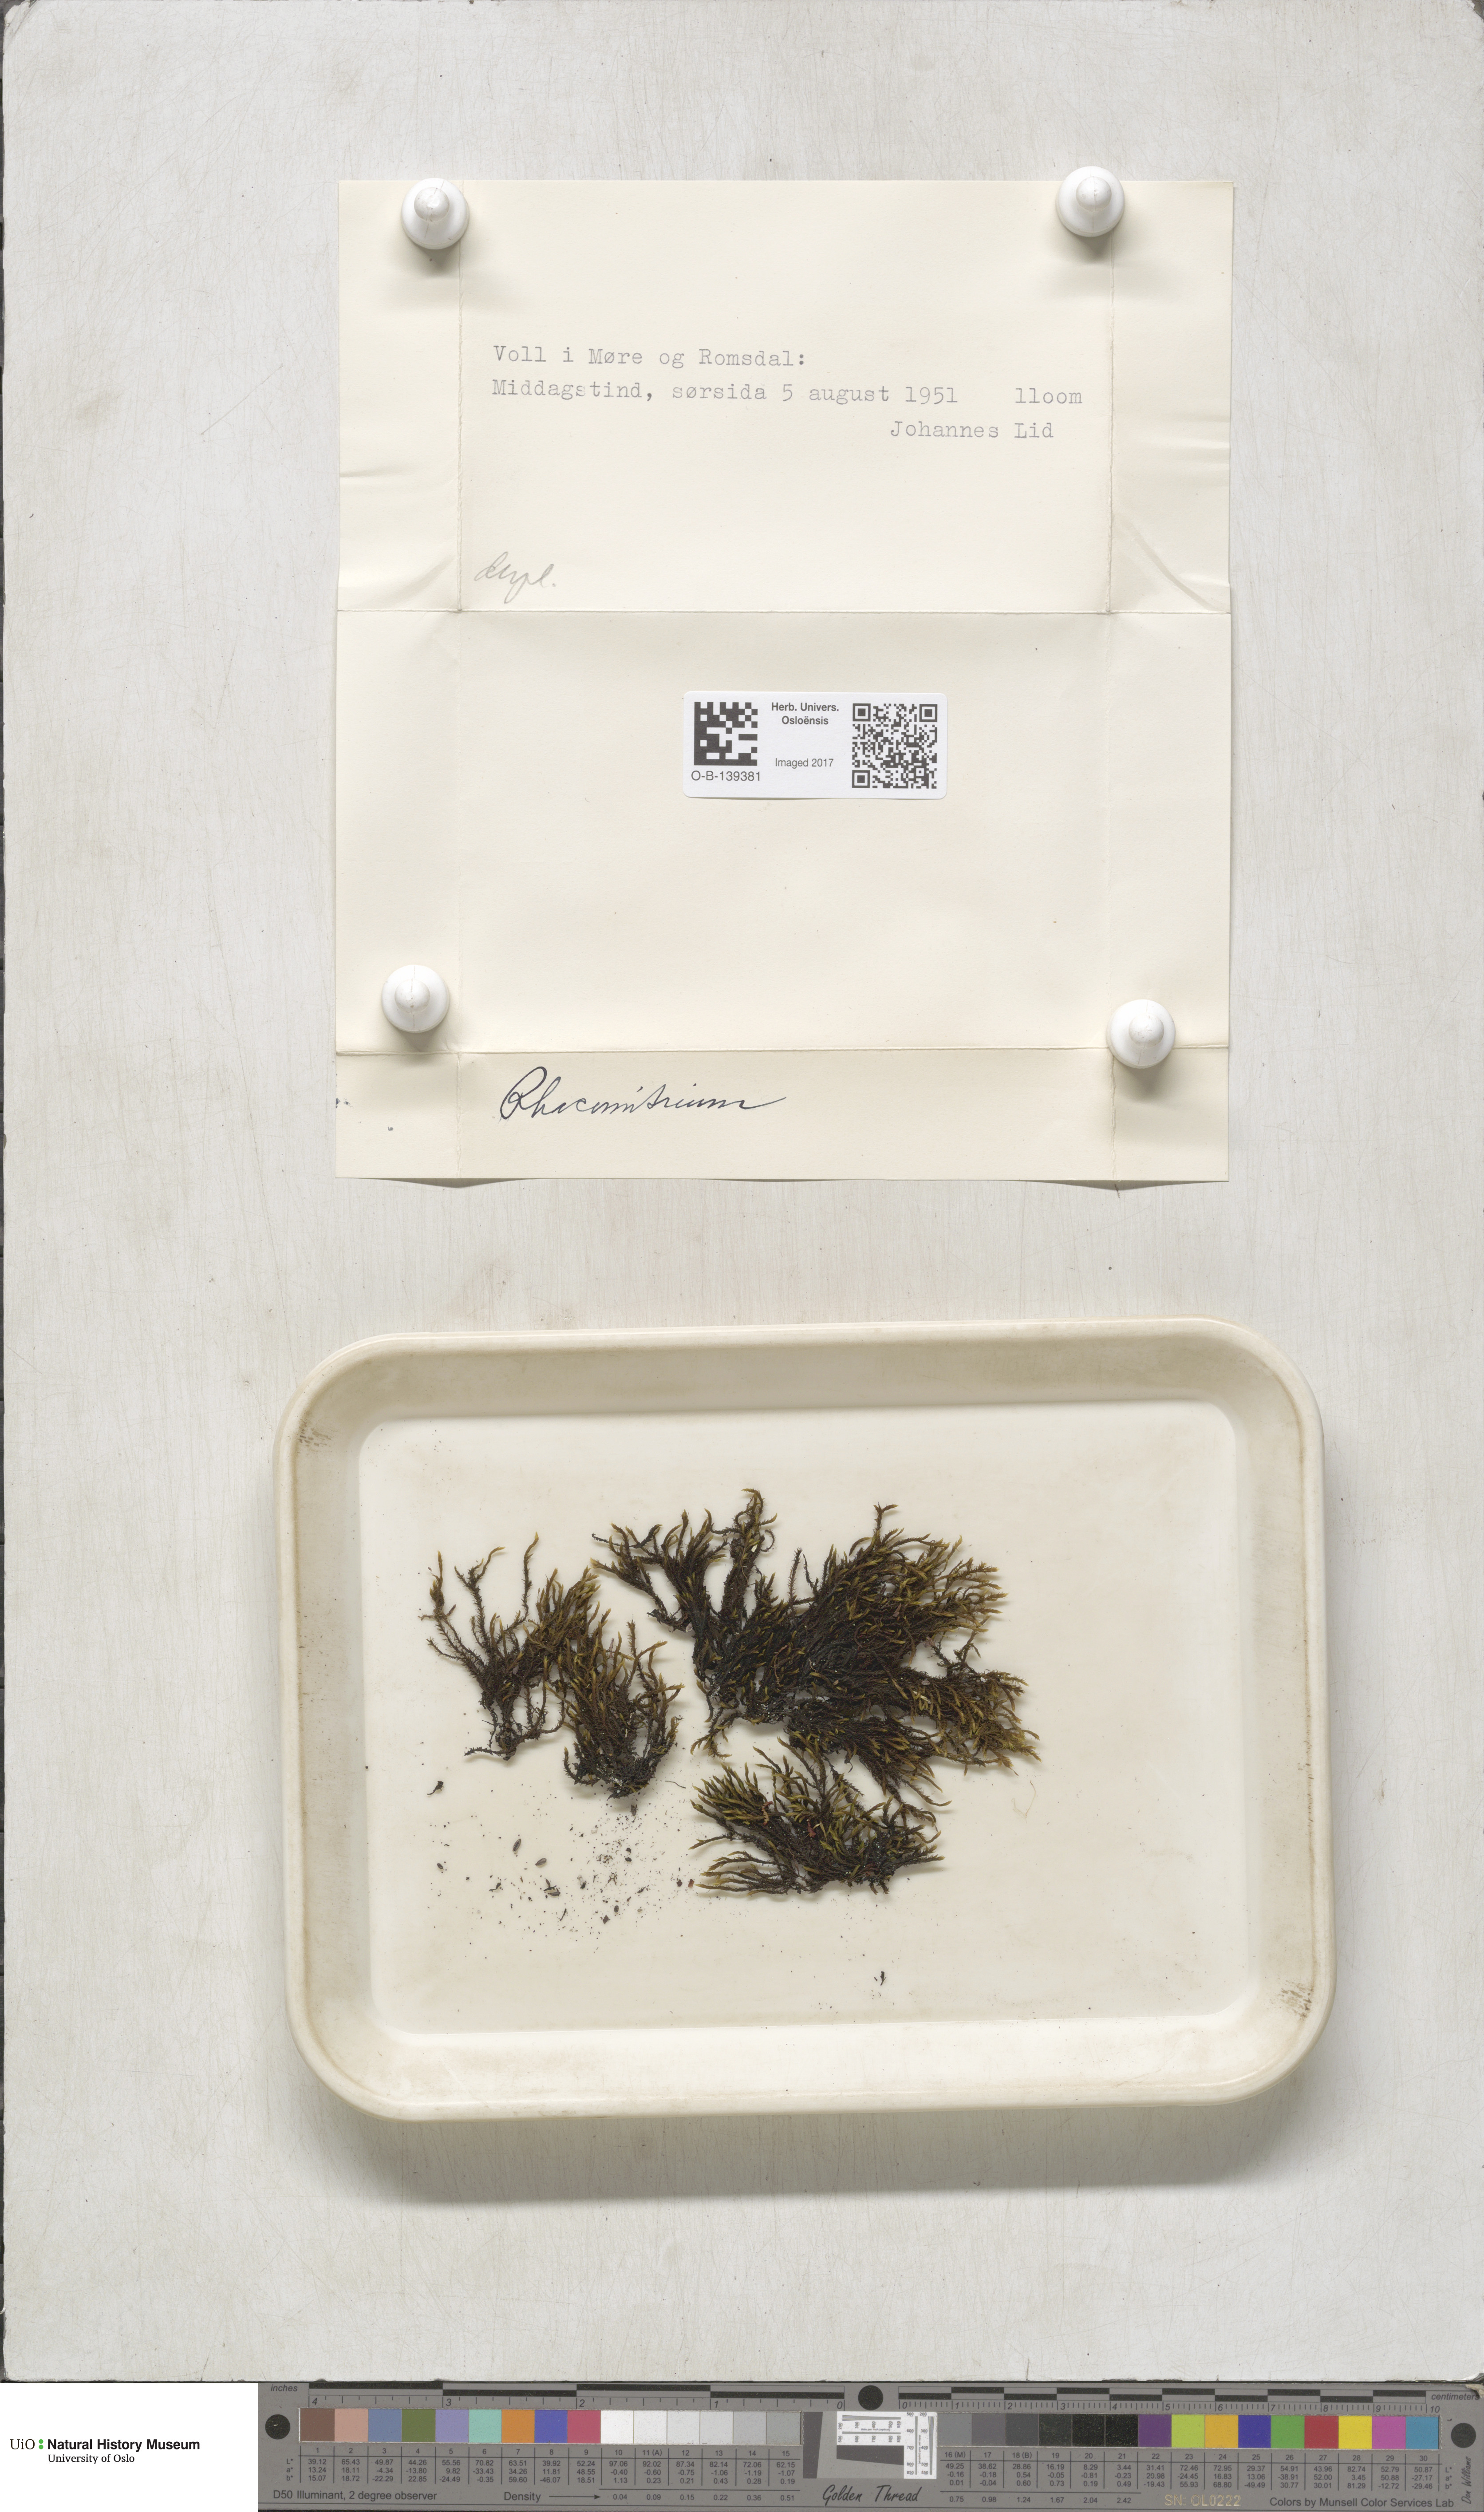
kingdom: Plantae
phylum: Bryophyta
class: Bryopsida
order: Grimmiales
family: Grimmiaceae
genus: Racomitrium
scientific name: Racomitrium
